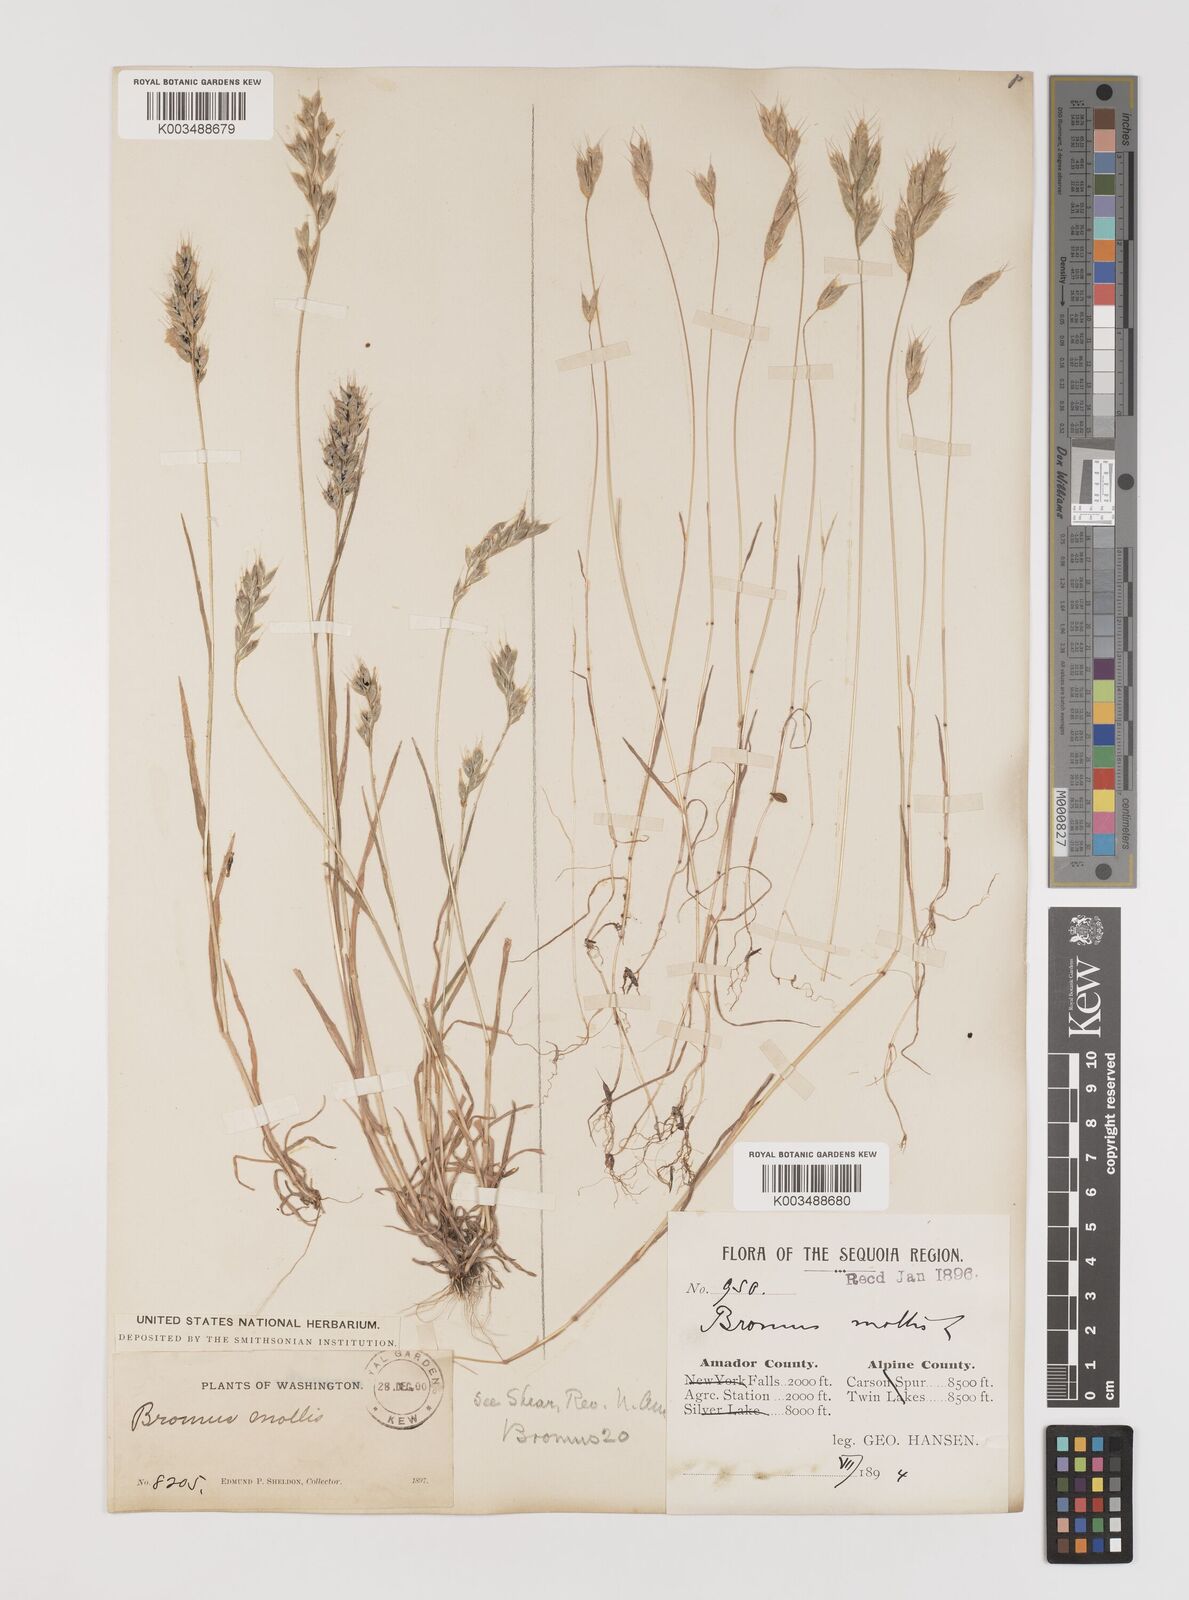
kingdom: Plantae
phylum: Tracheophyta
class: Liliopsida
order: Poales
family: Poaceae
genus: Bromus
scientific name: Bromus hordeaceus
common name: Soft brome
